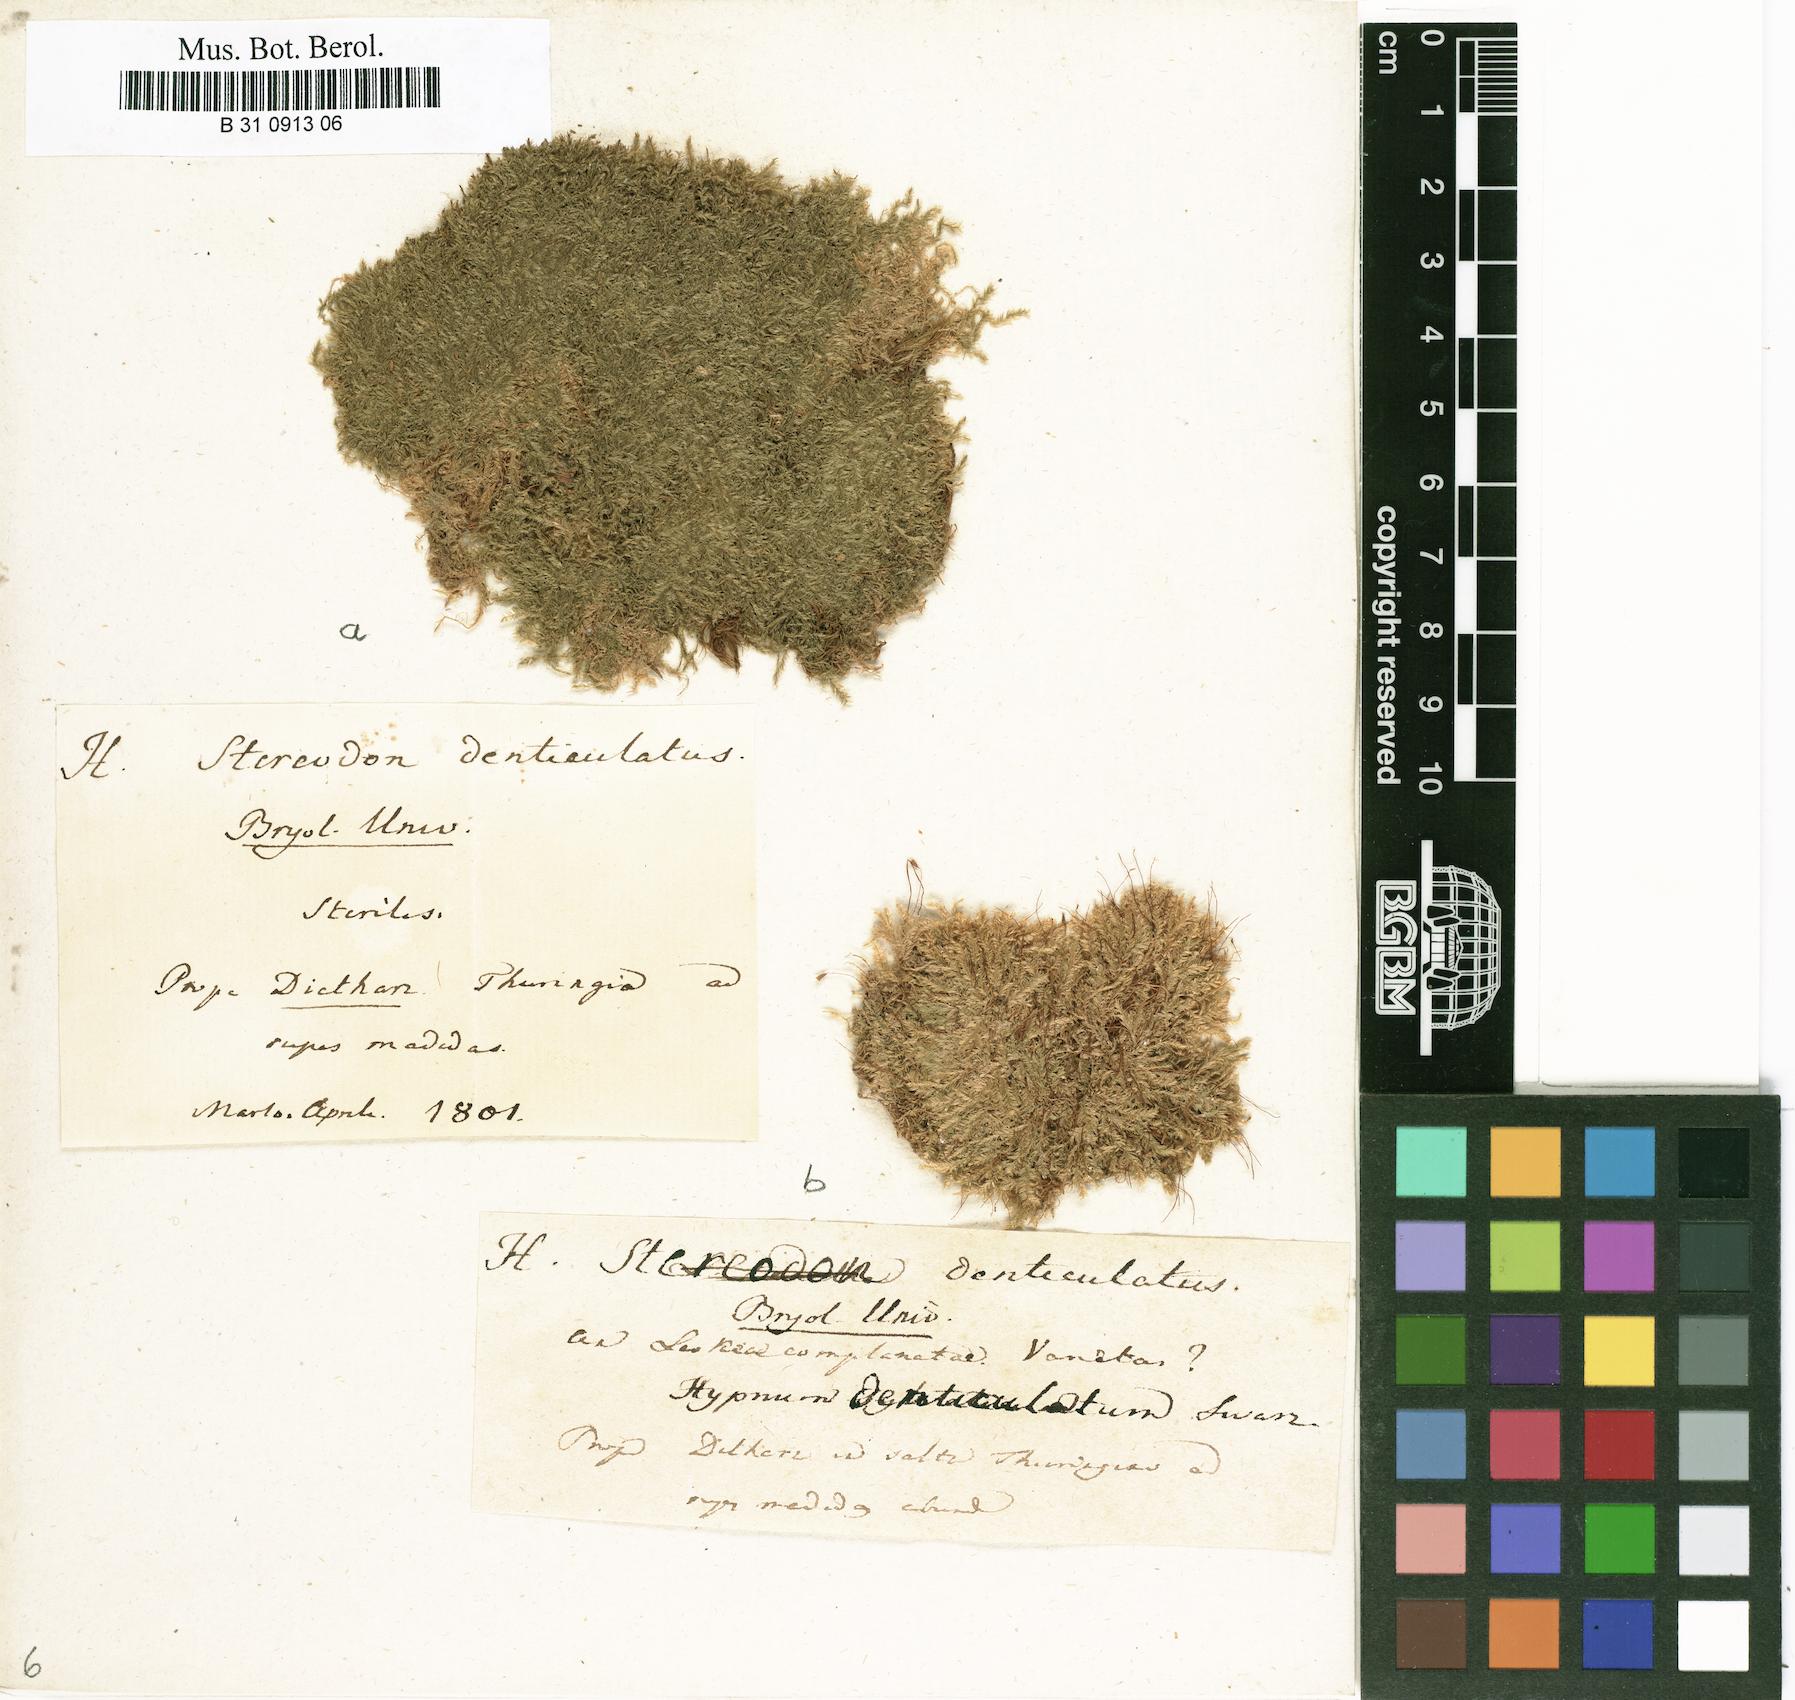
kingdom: Plantae
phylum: Bryophyta
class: Bryopsida
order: Hypnales
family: Plagiotheciaceae
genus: Plagiothecium
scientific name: Plagiothecium denticulatum
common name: Dented silk moss
